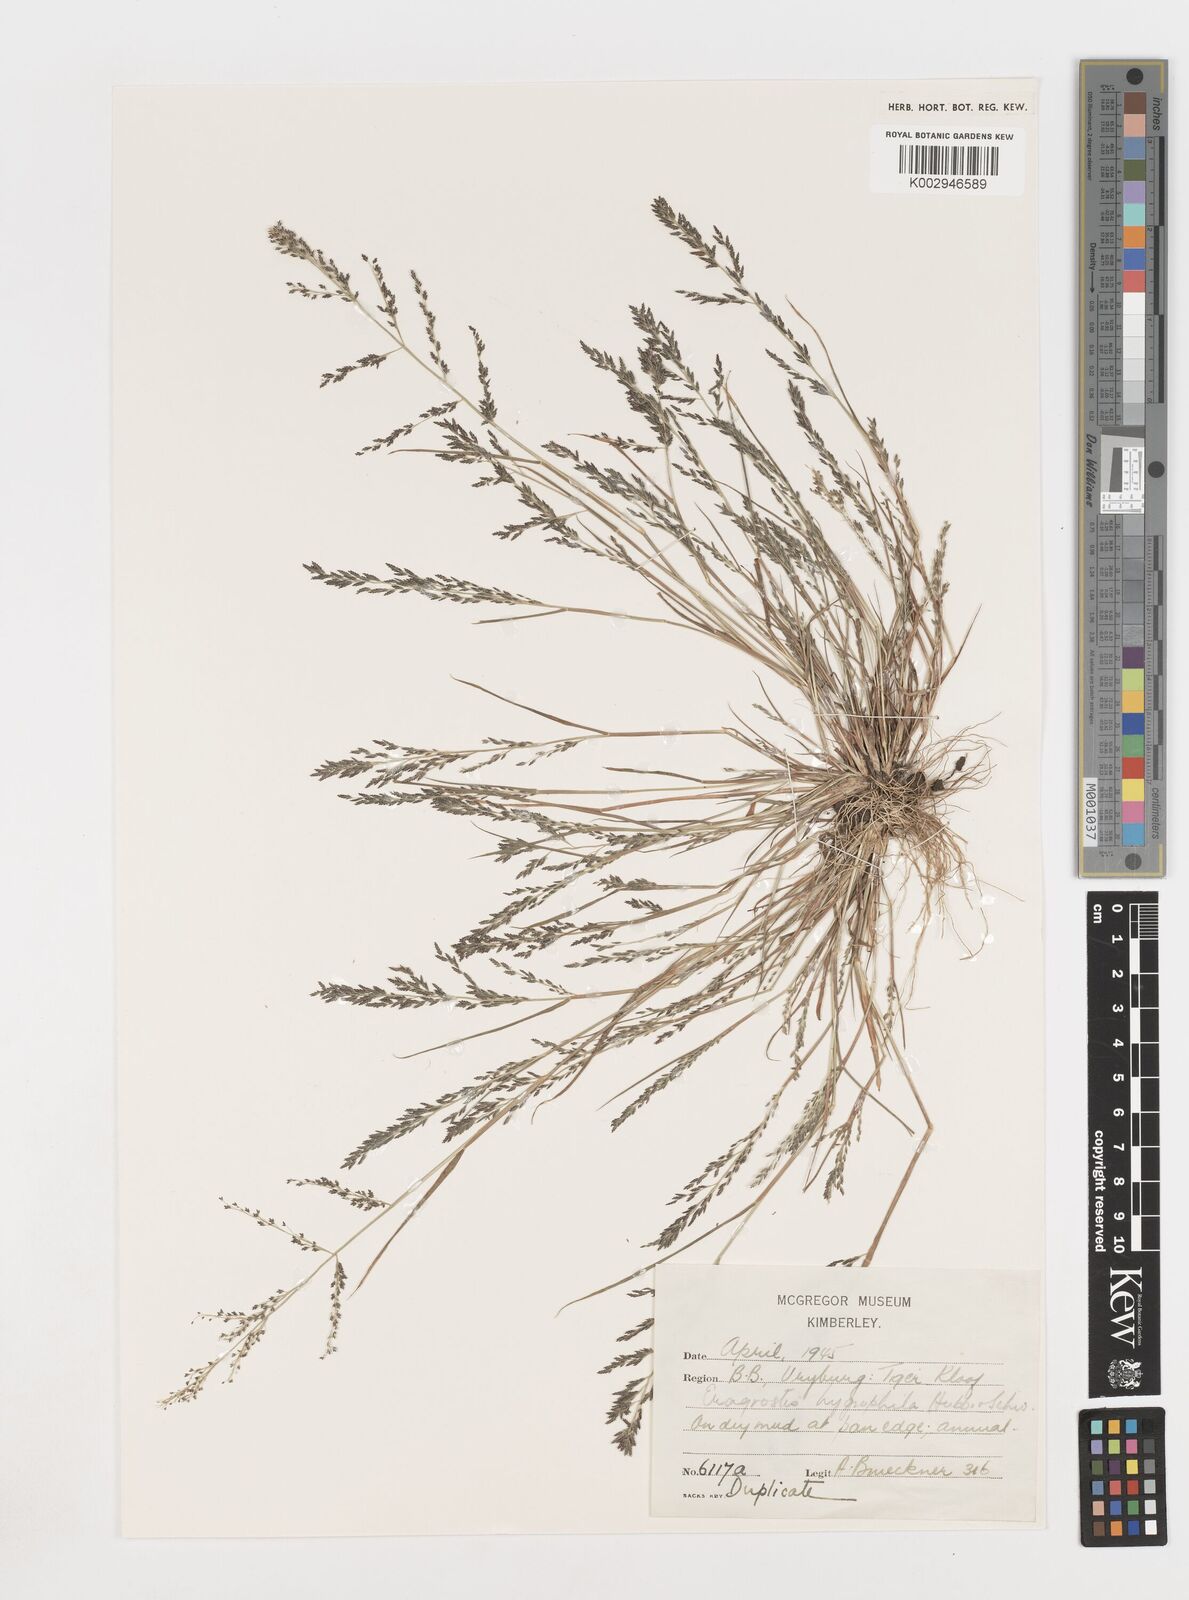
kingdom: Plantae
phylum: Tracheophyta
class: Liliopsida
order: Poales
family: Poaceae
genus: Eragrostis
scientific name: Eragrostis homomalla
